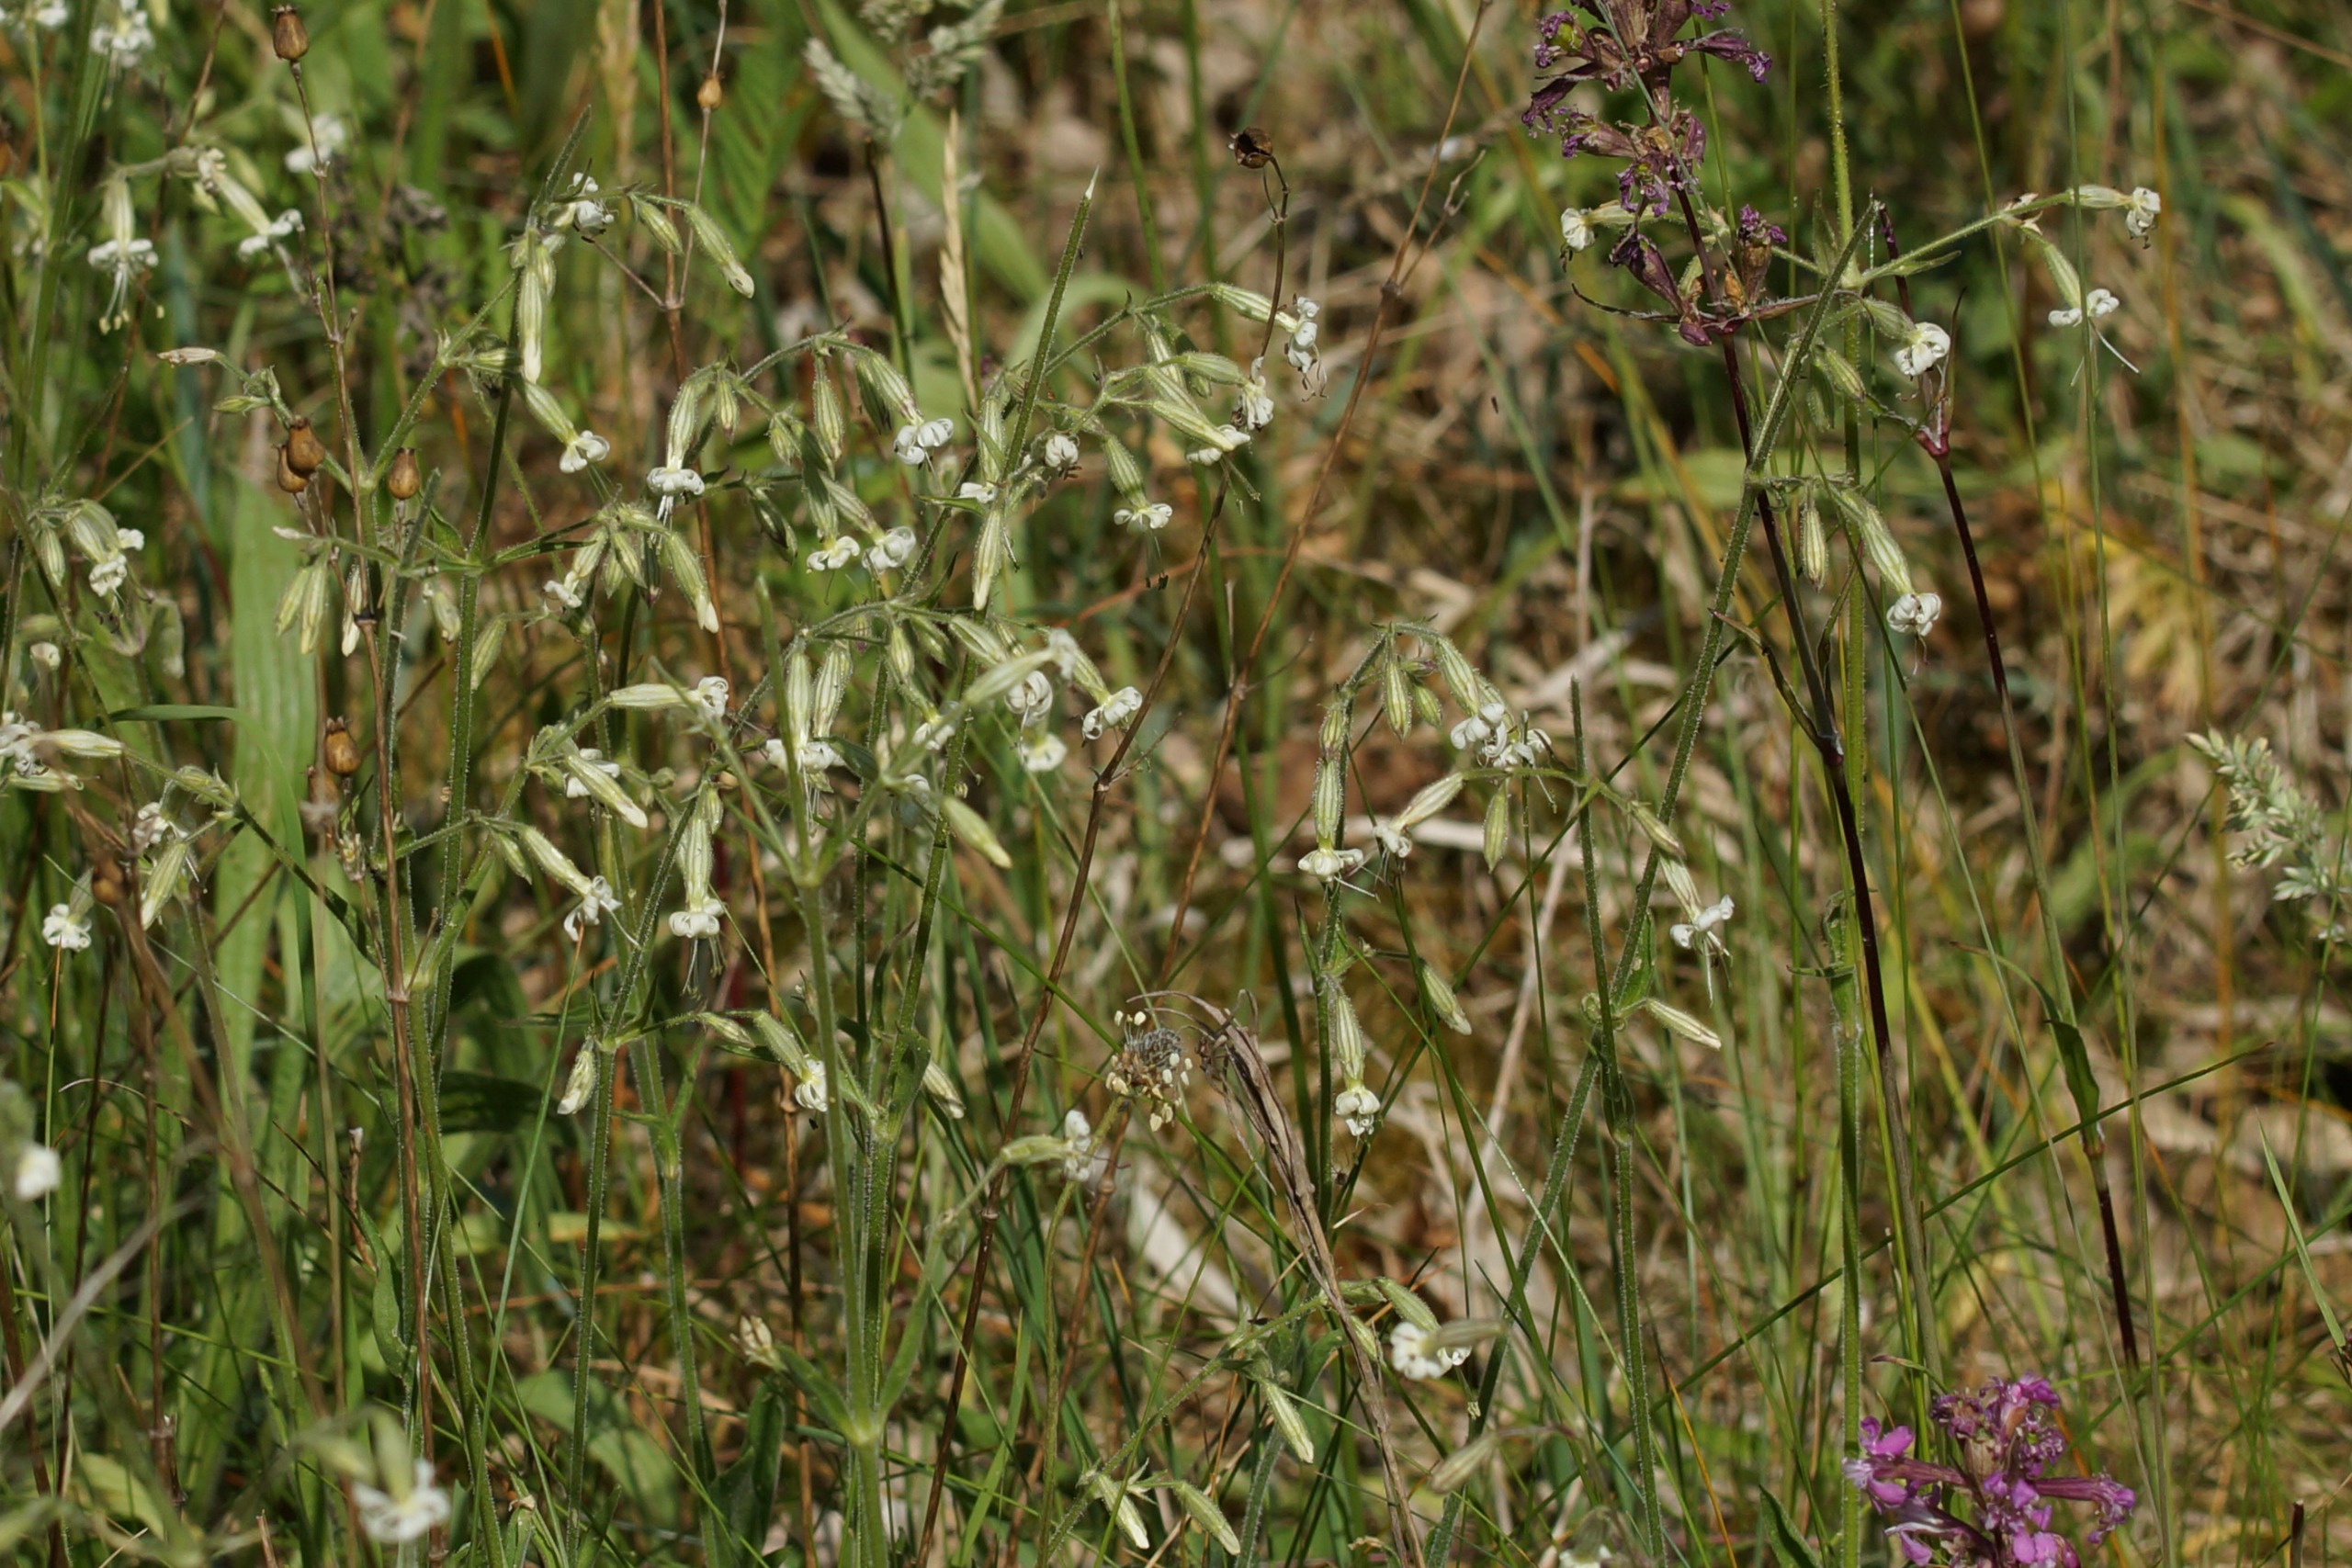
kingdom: Plantae
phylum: Tracheophyta
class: Magnoliopsida
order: Caryophyllales
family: Caryophyllaceae
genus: Silene
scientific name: Silene nutans
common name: Nikkende limurt
